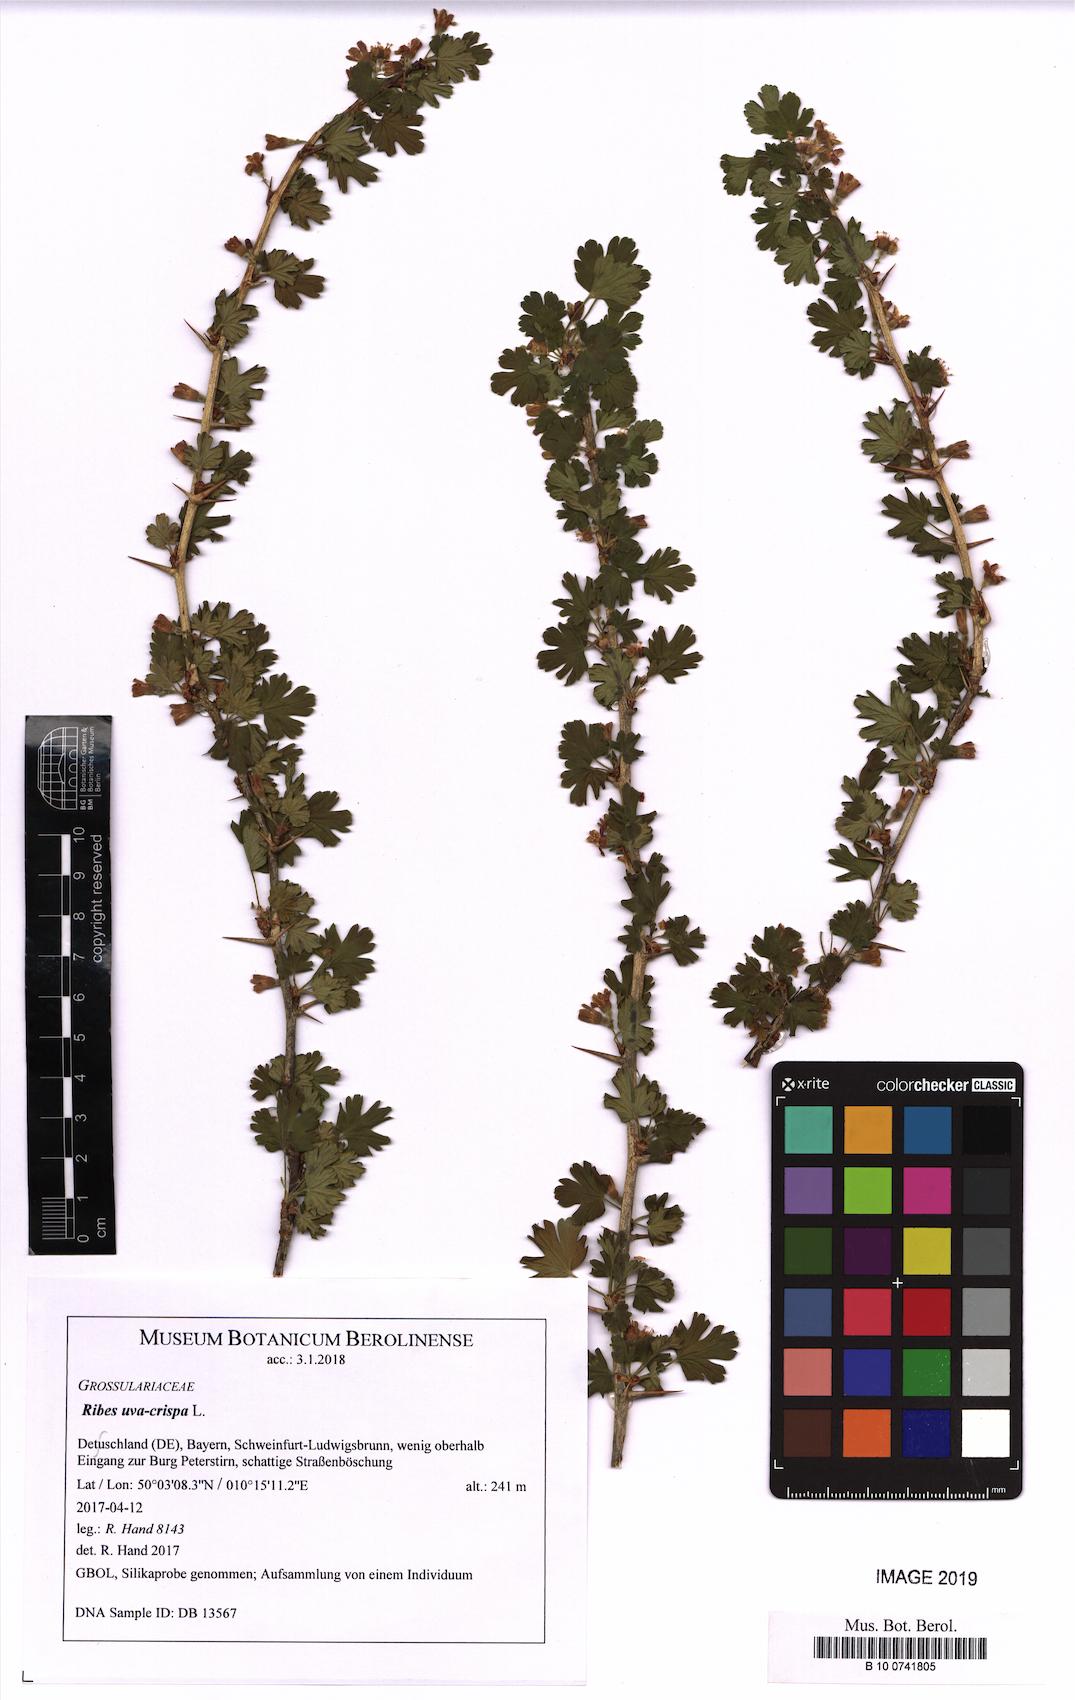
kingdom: Plantae
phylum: Tracheophyta
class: Magnoliopsida
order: Saxifragales
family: Grossulariaceae
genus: Ribes
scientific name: Ribes uva-crispa
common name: Gooseberry
